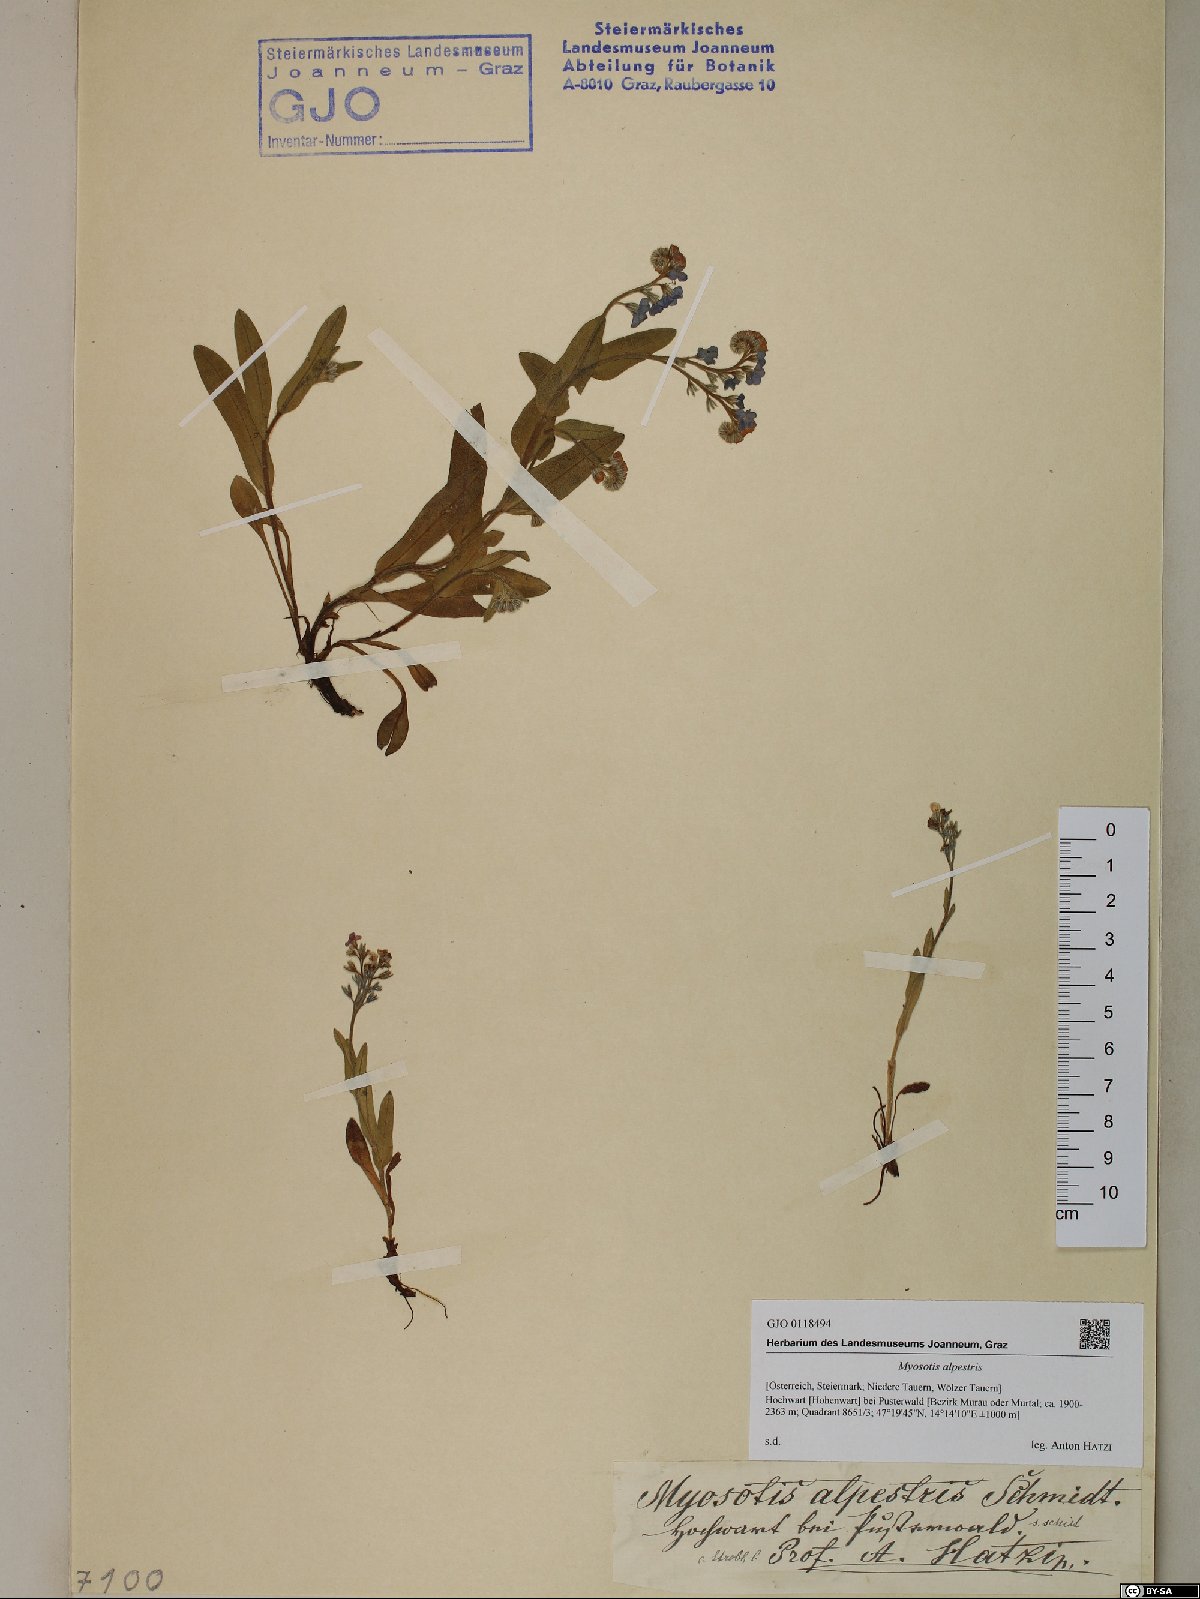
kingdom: Plantae
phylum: Tracheophyta
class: Magnoliopsida
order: Boraginales
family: Boraginaceae
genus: Myosotis
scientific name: Myosotis alpestris
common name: Alpine forget-me-not
